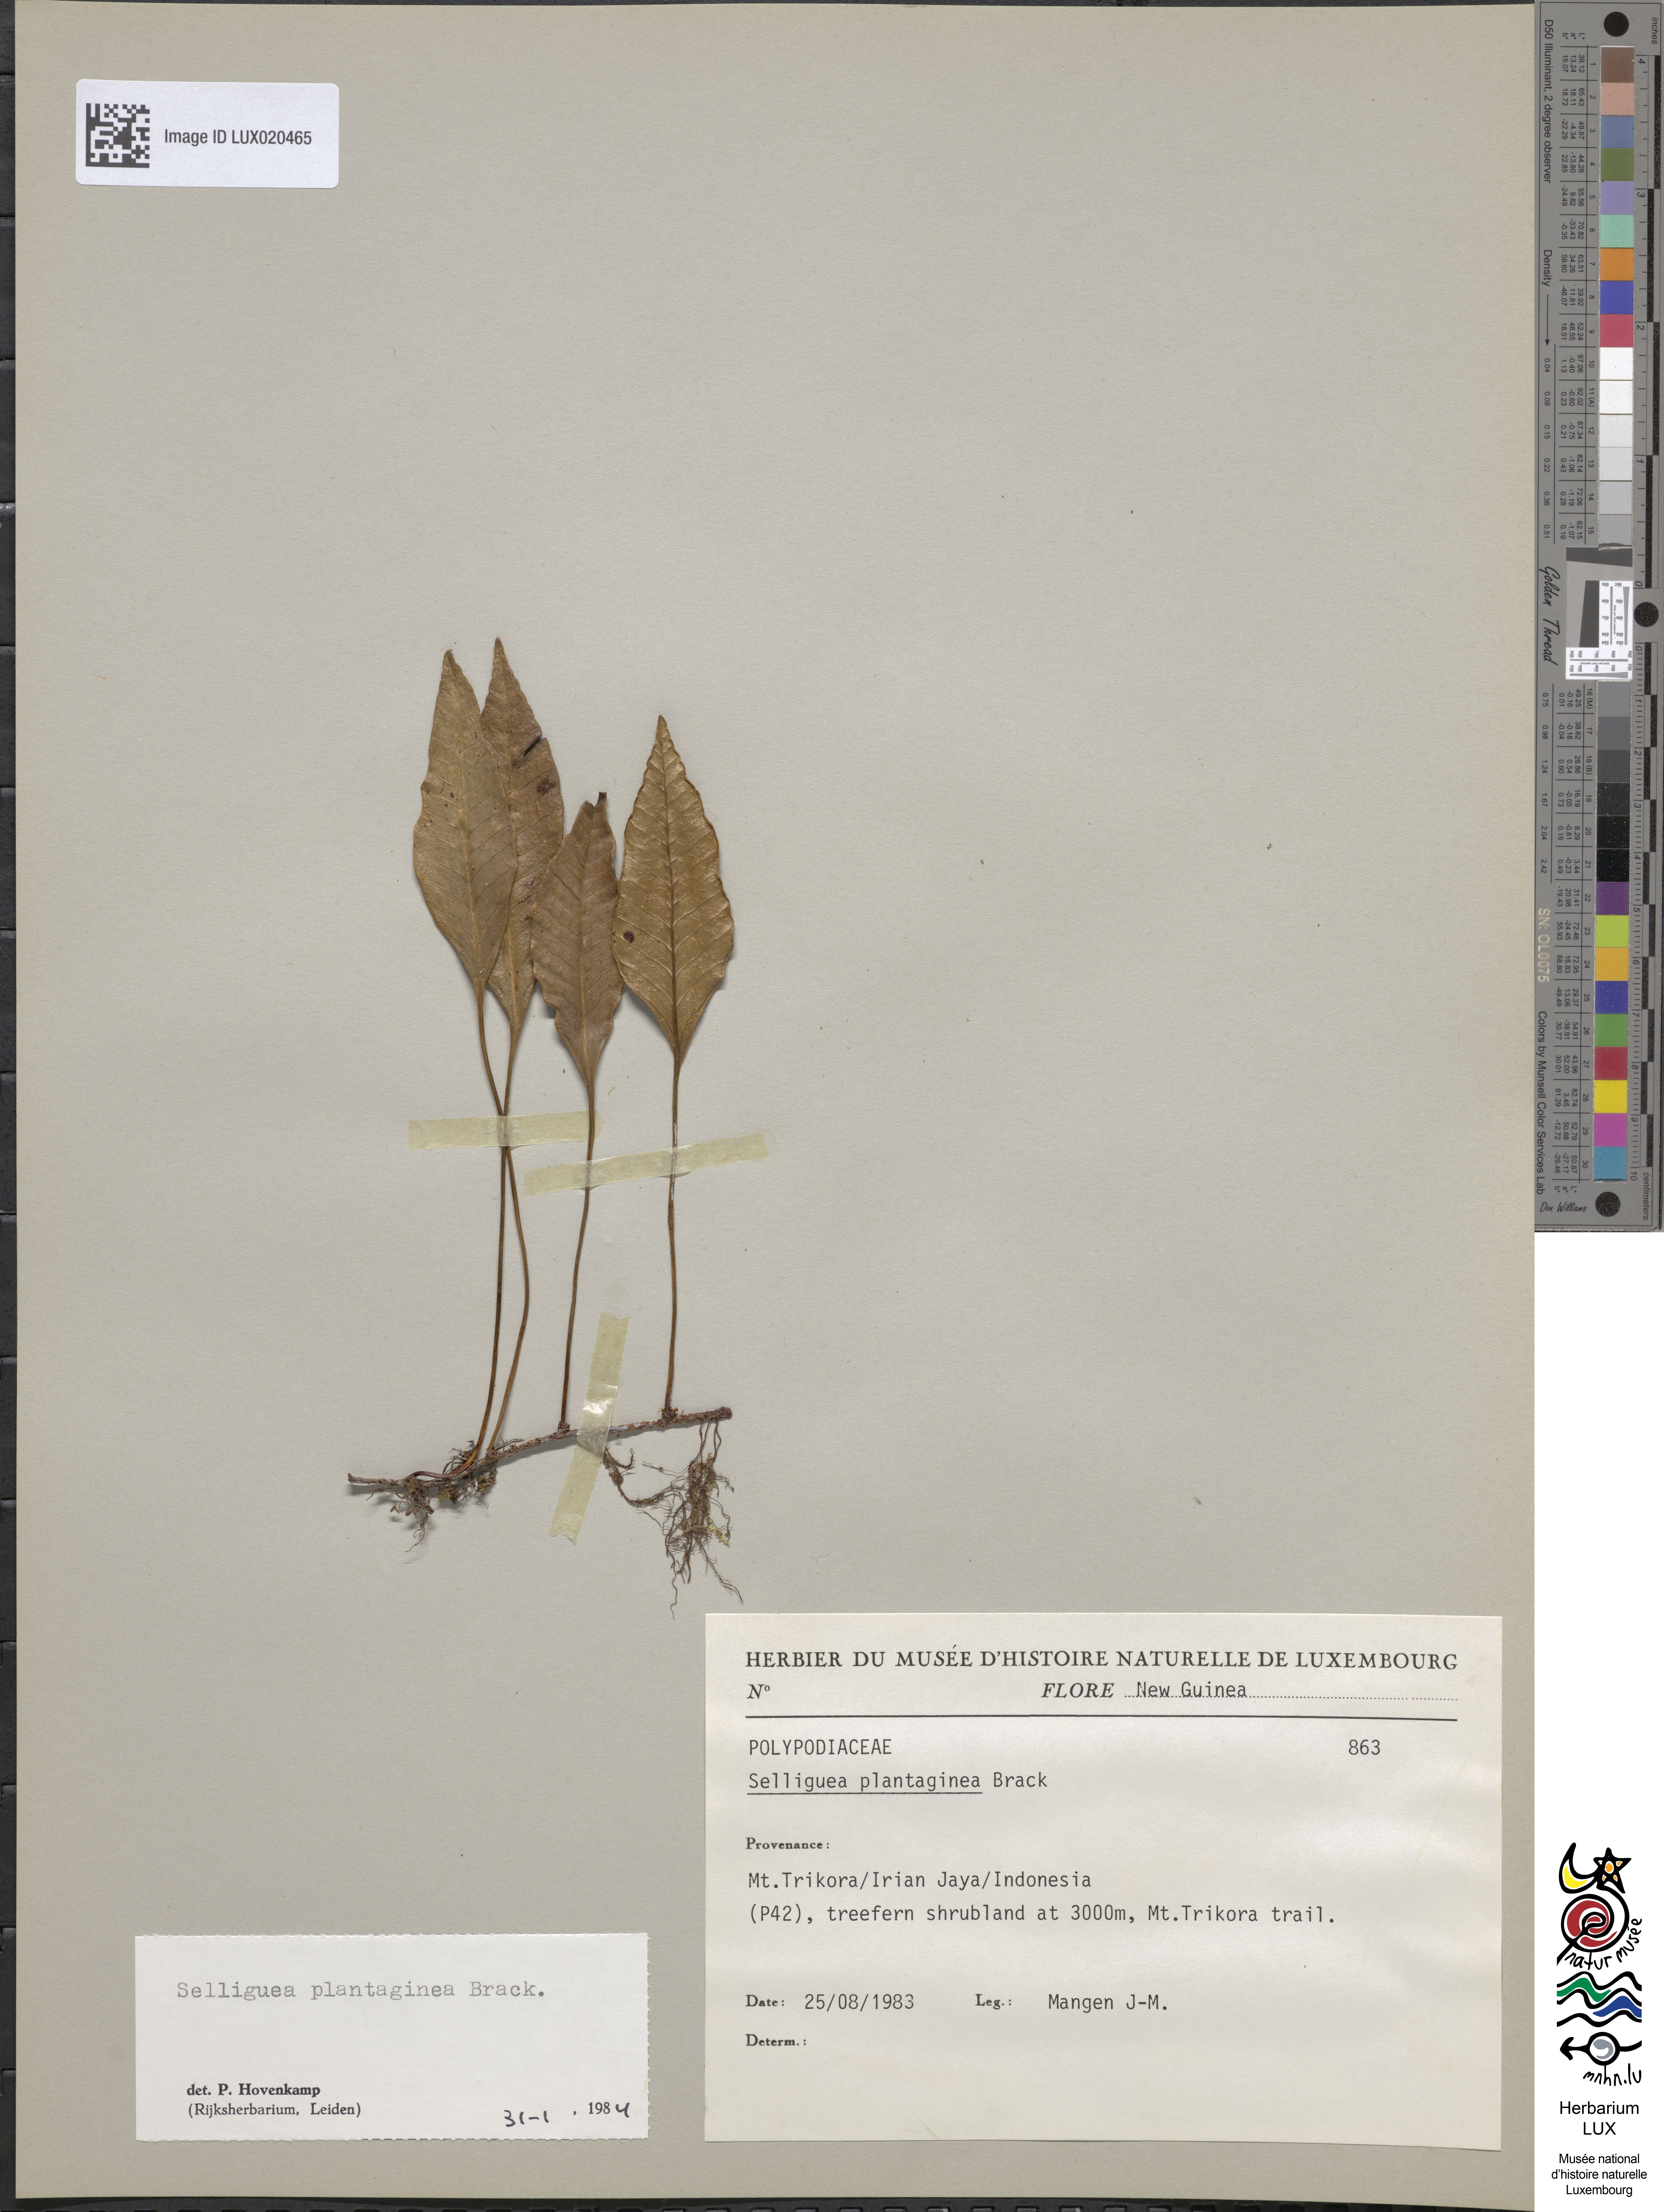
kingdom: Plantae
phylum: Tracheophyta
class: Polypodiopsida
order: Polypodiales
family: Polypodiaceae
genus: Selliguea
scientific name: Selliguea plantaginea
